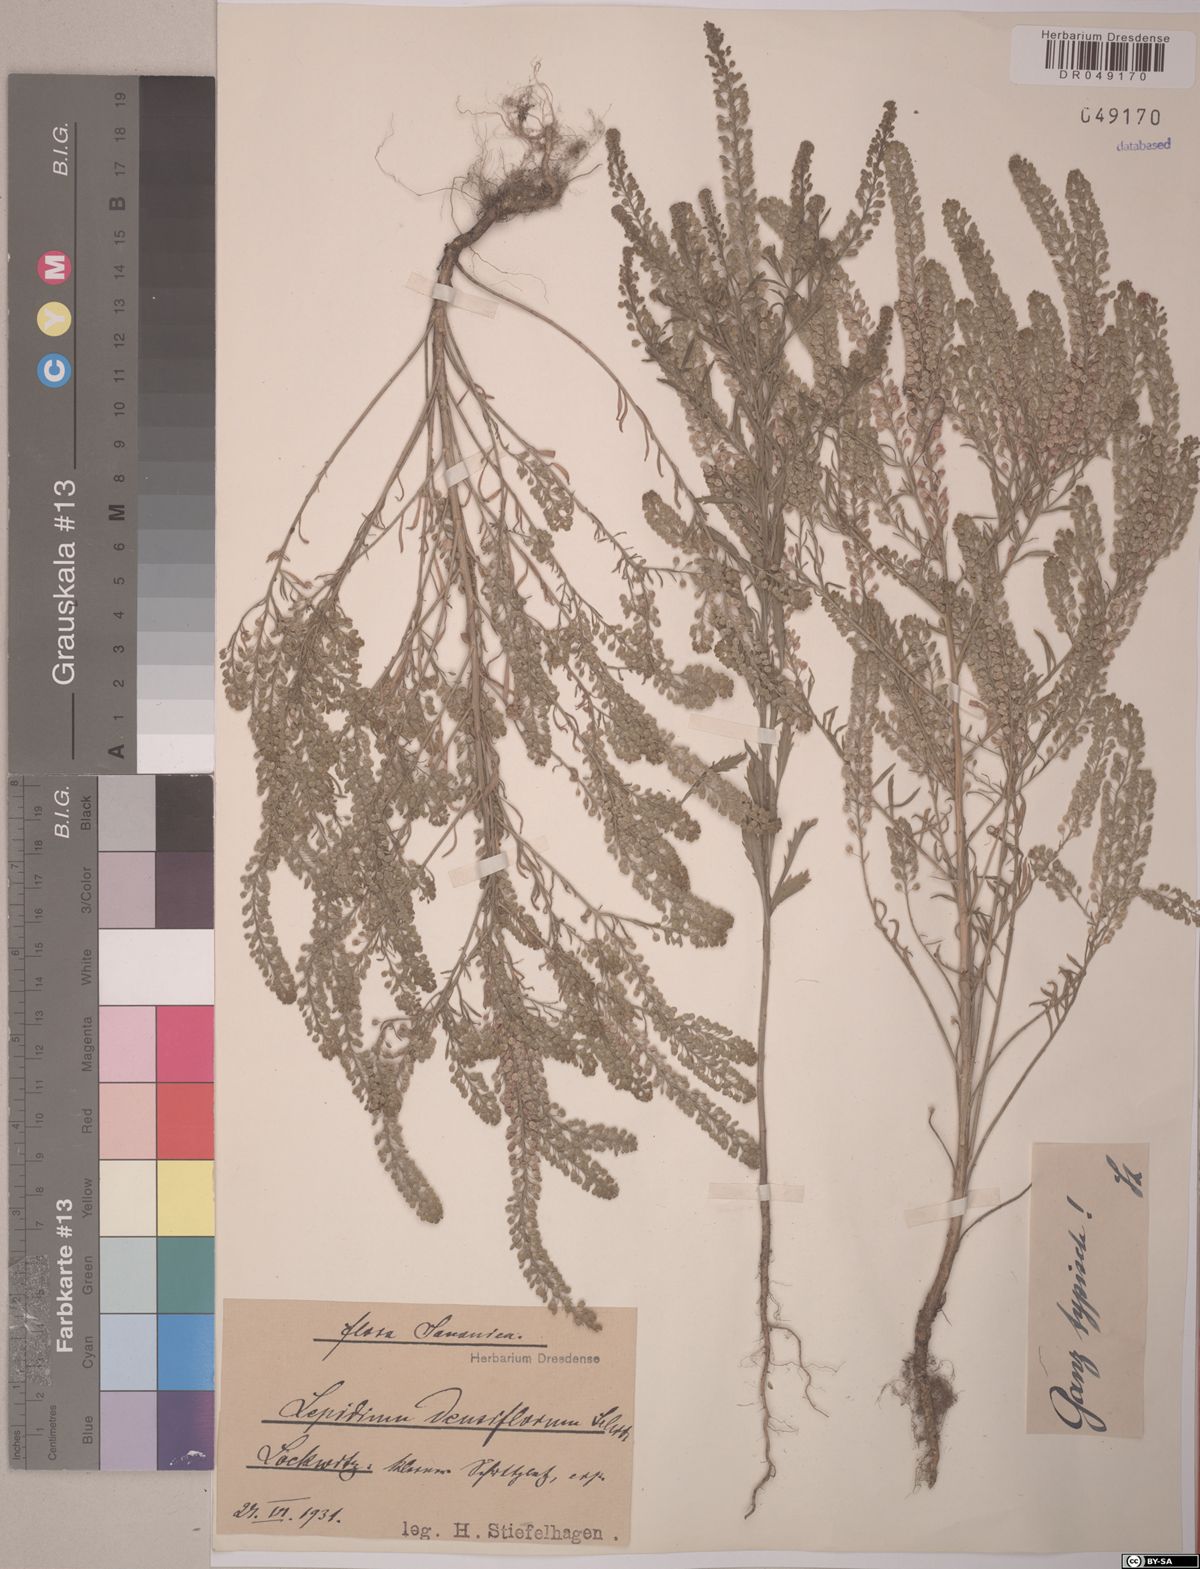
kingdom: Plantae
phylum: Tracheophyta
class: Magnoliopsida
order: Brassicales
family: Brassicaceae
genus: Lepidium
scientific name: Lepidium densiflorum
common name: Miner's pepperwort
